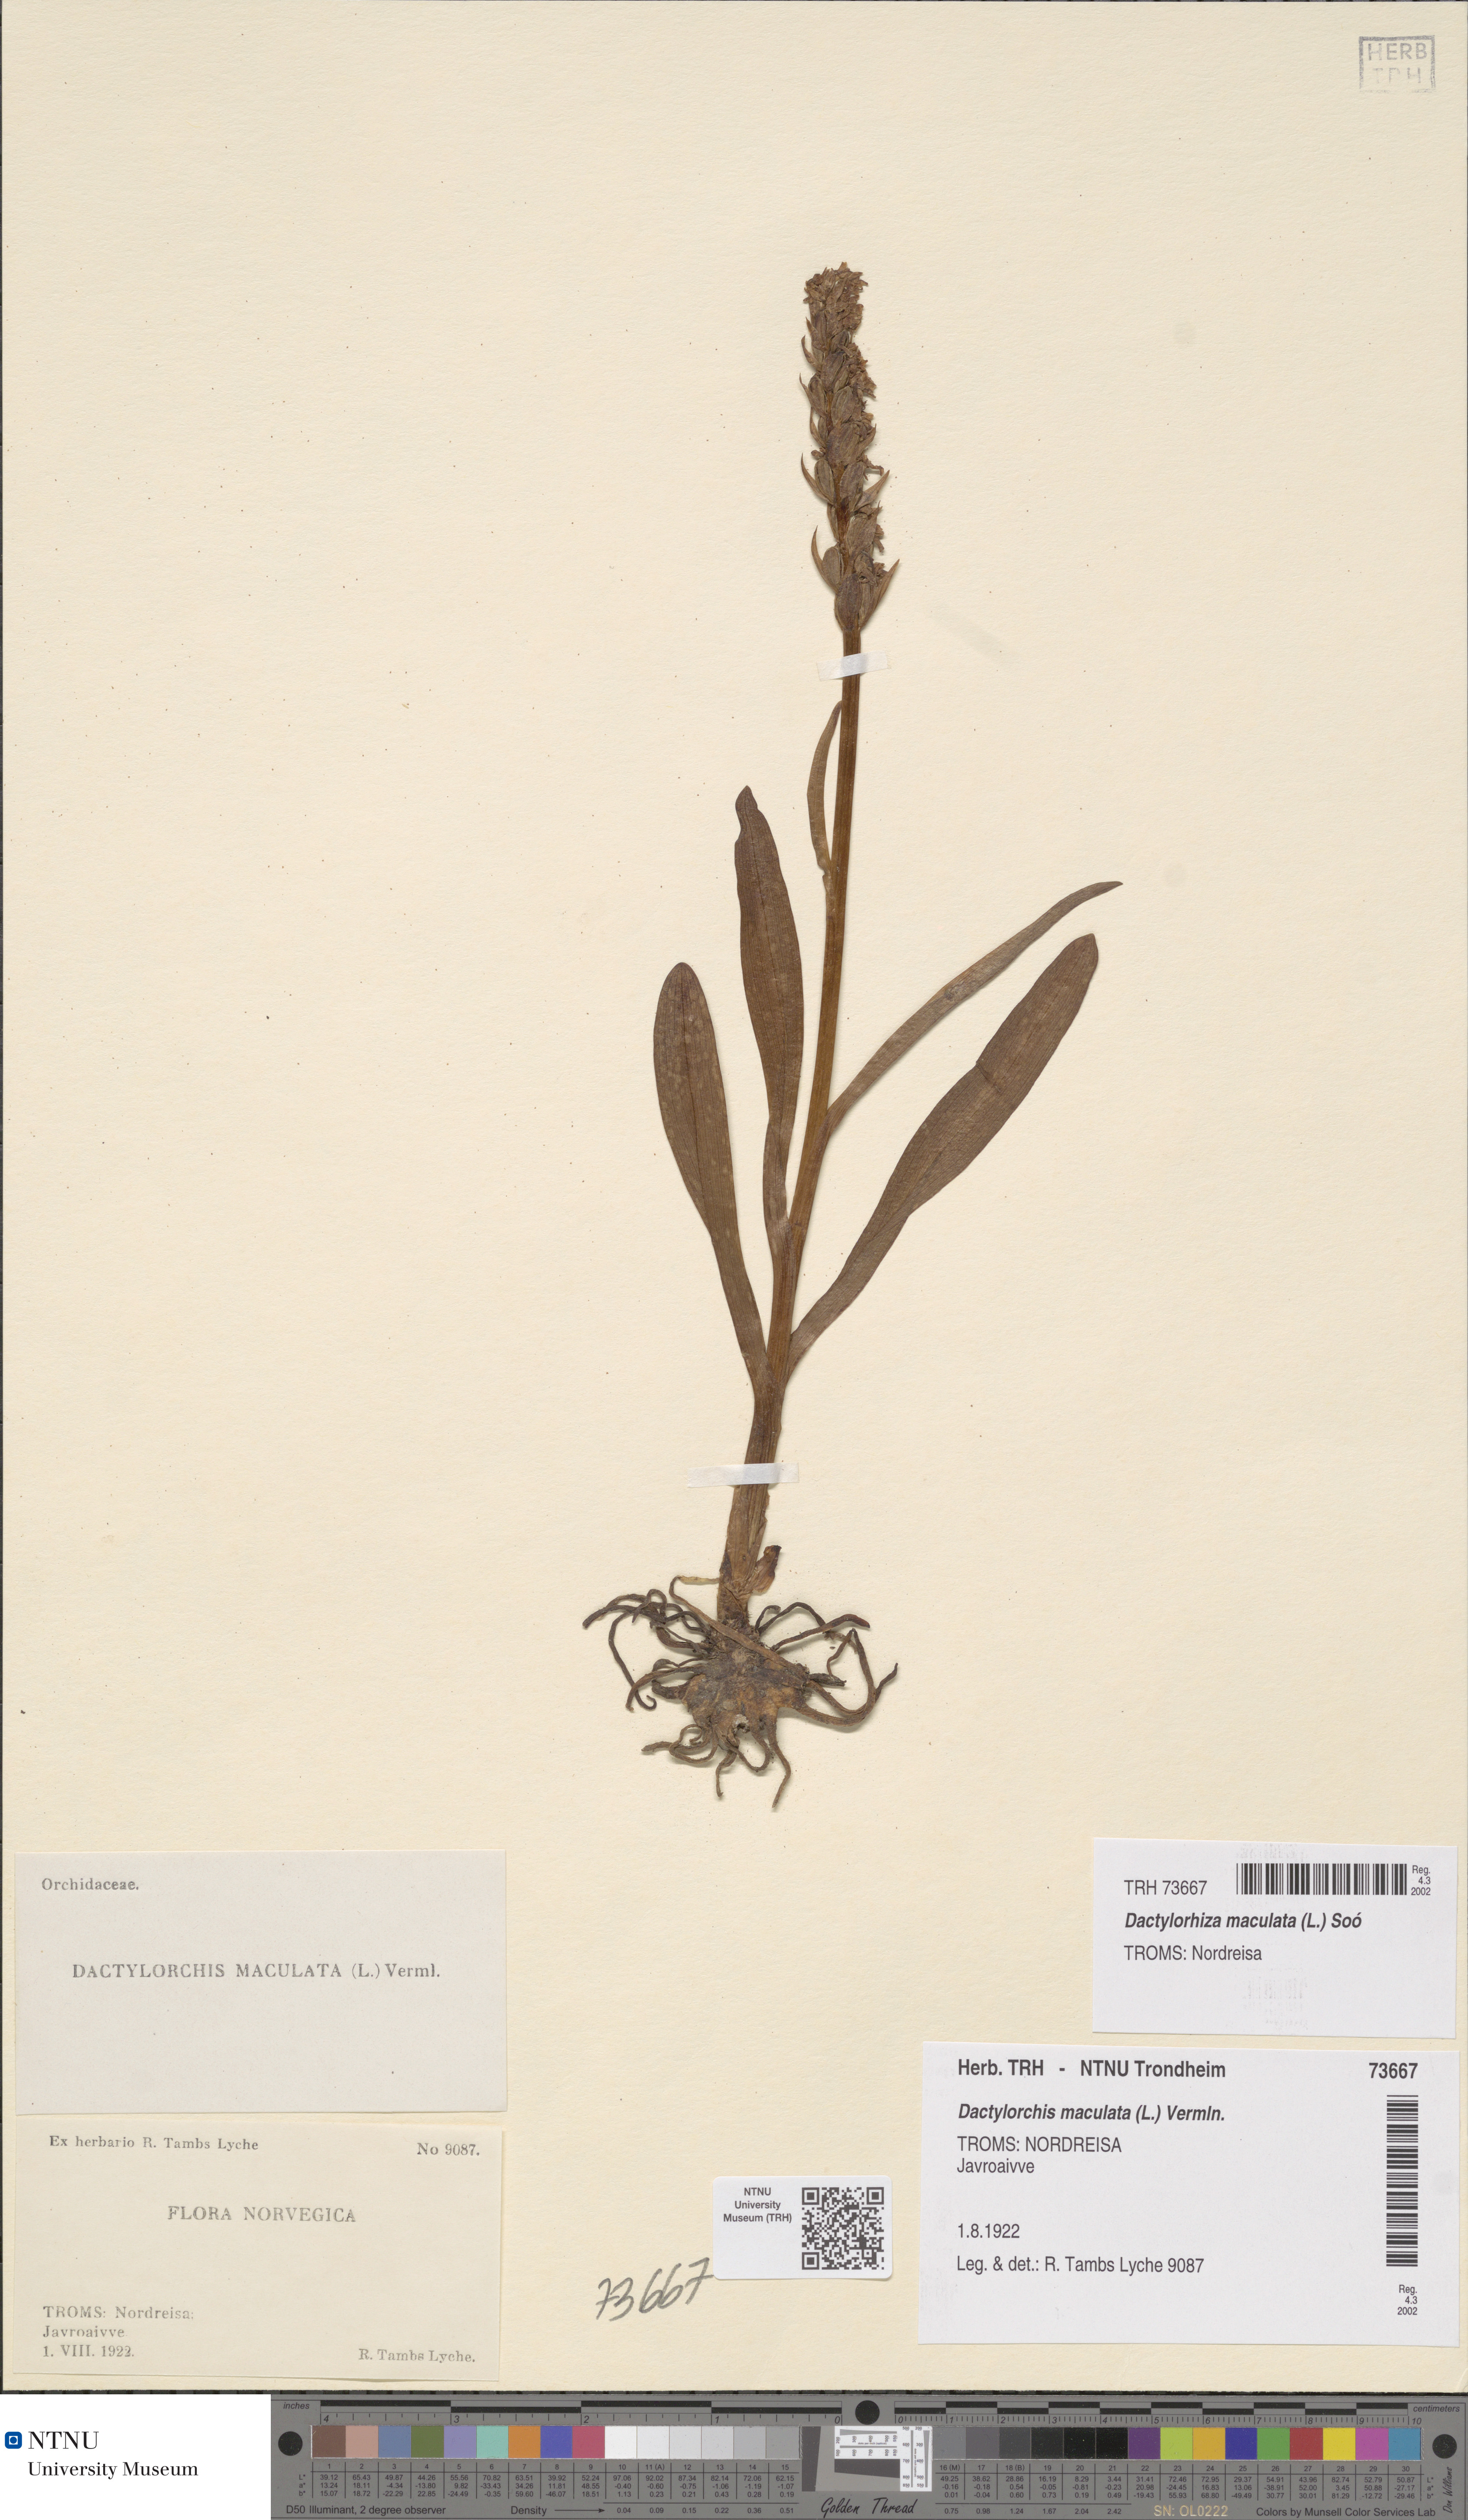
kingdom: Plantae
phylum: Tracheophyta
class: Liliopsida
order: Asparagales
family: Orchidaceae
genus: Dactylorhiza
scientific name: Dactylorhiza maculata
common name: Heath spotted-orchid
